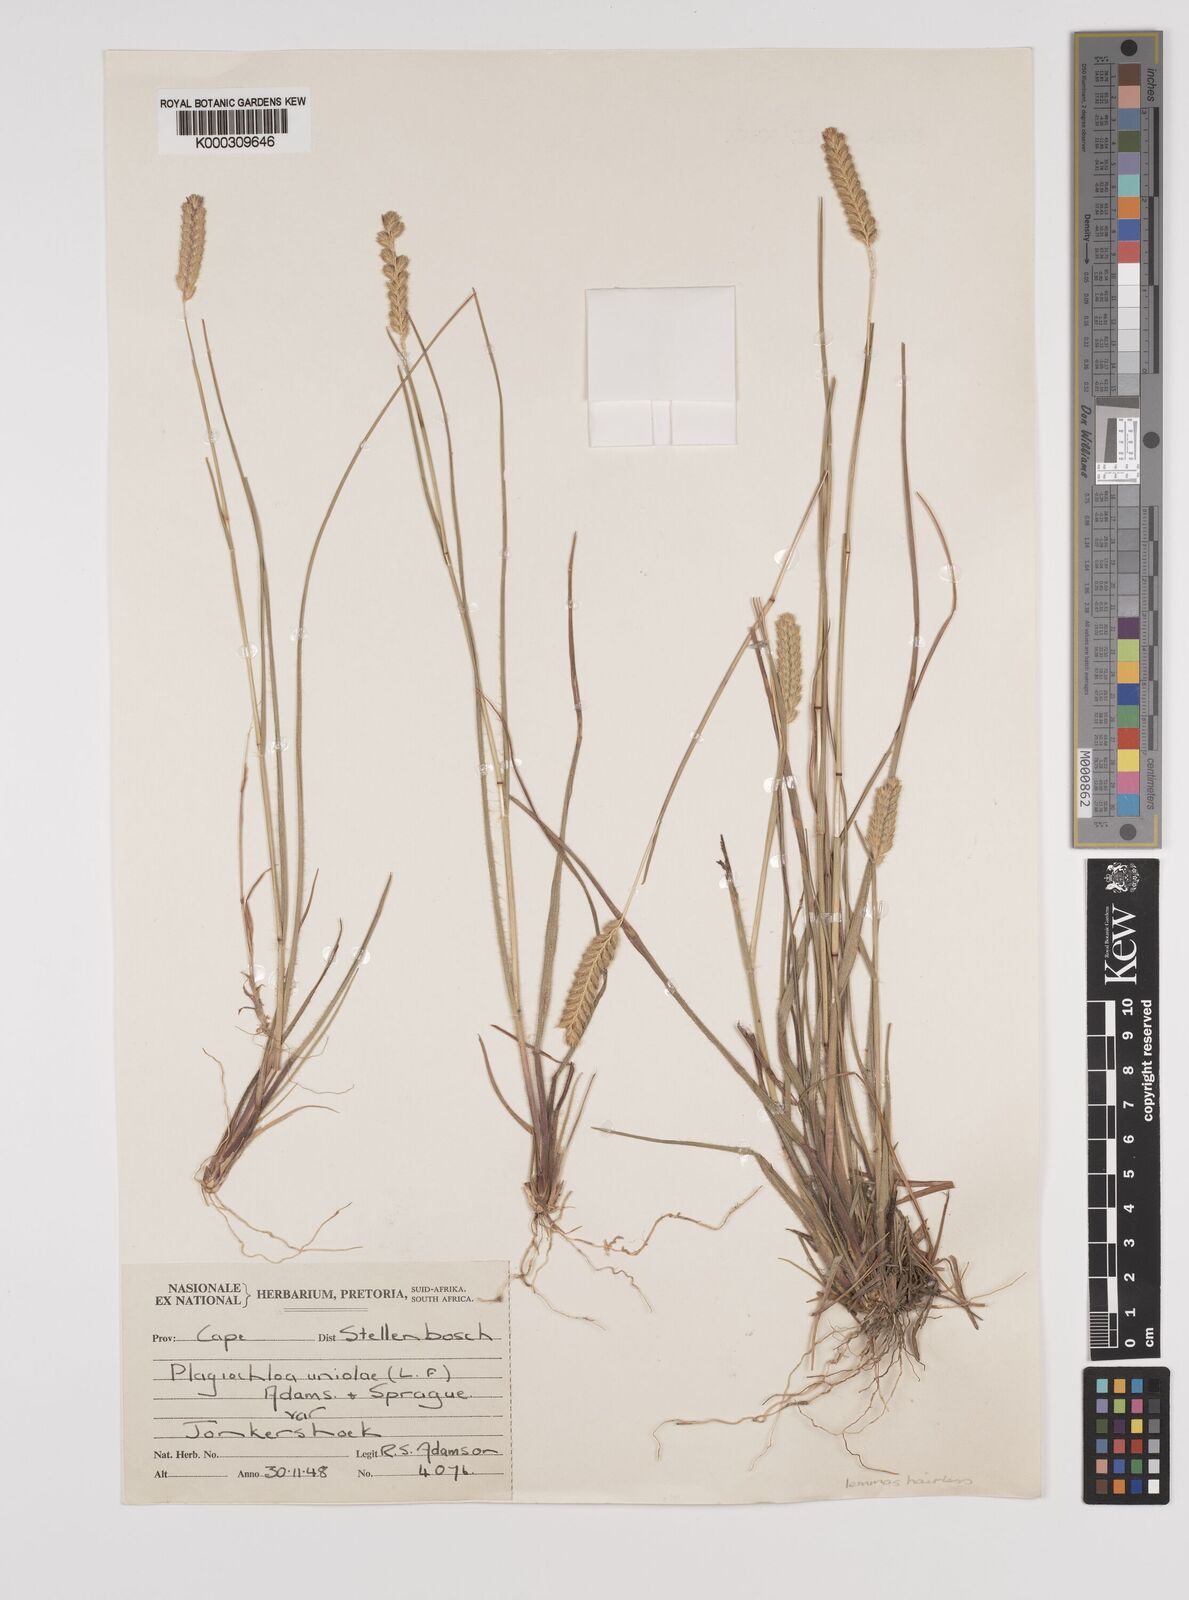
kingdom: Plantae
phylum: Tracheophyta
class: Liliopsida
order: Poales
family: Poaceae
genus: Tribolium
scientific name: Tribolium uniolae
